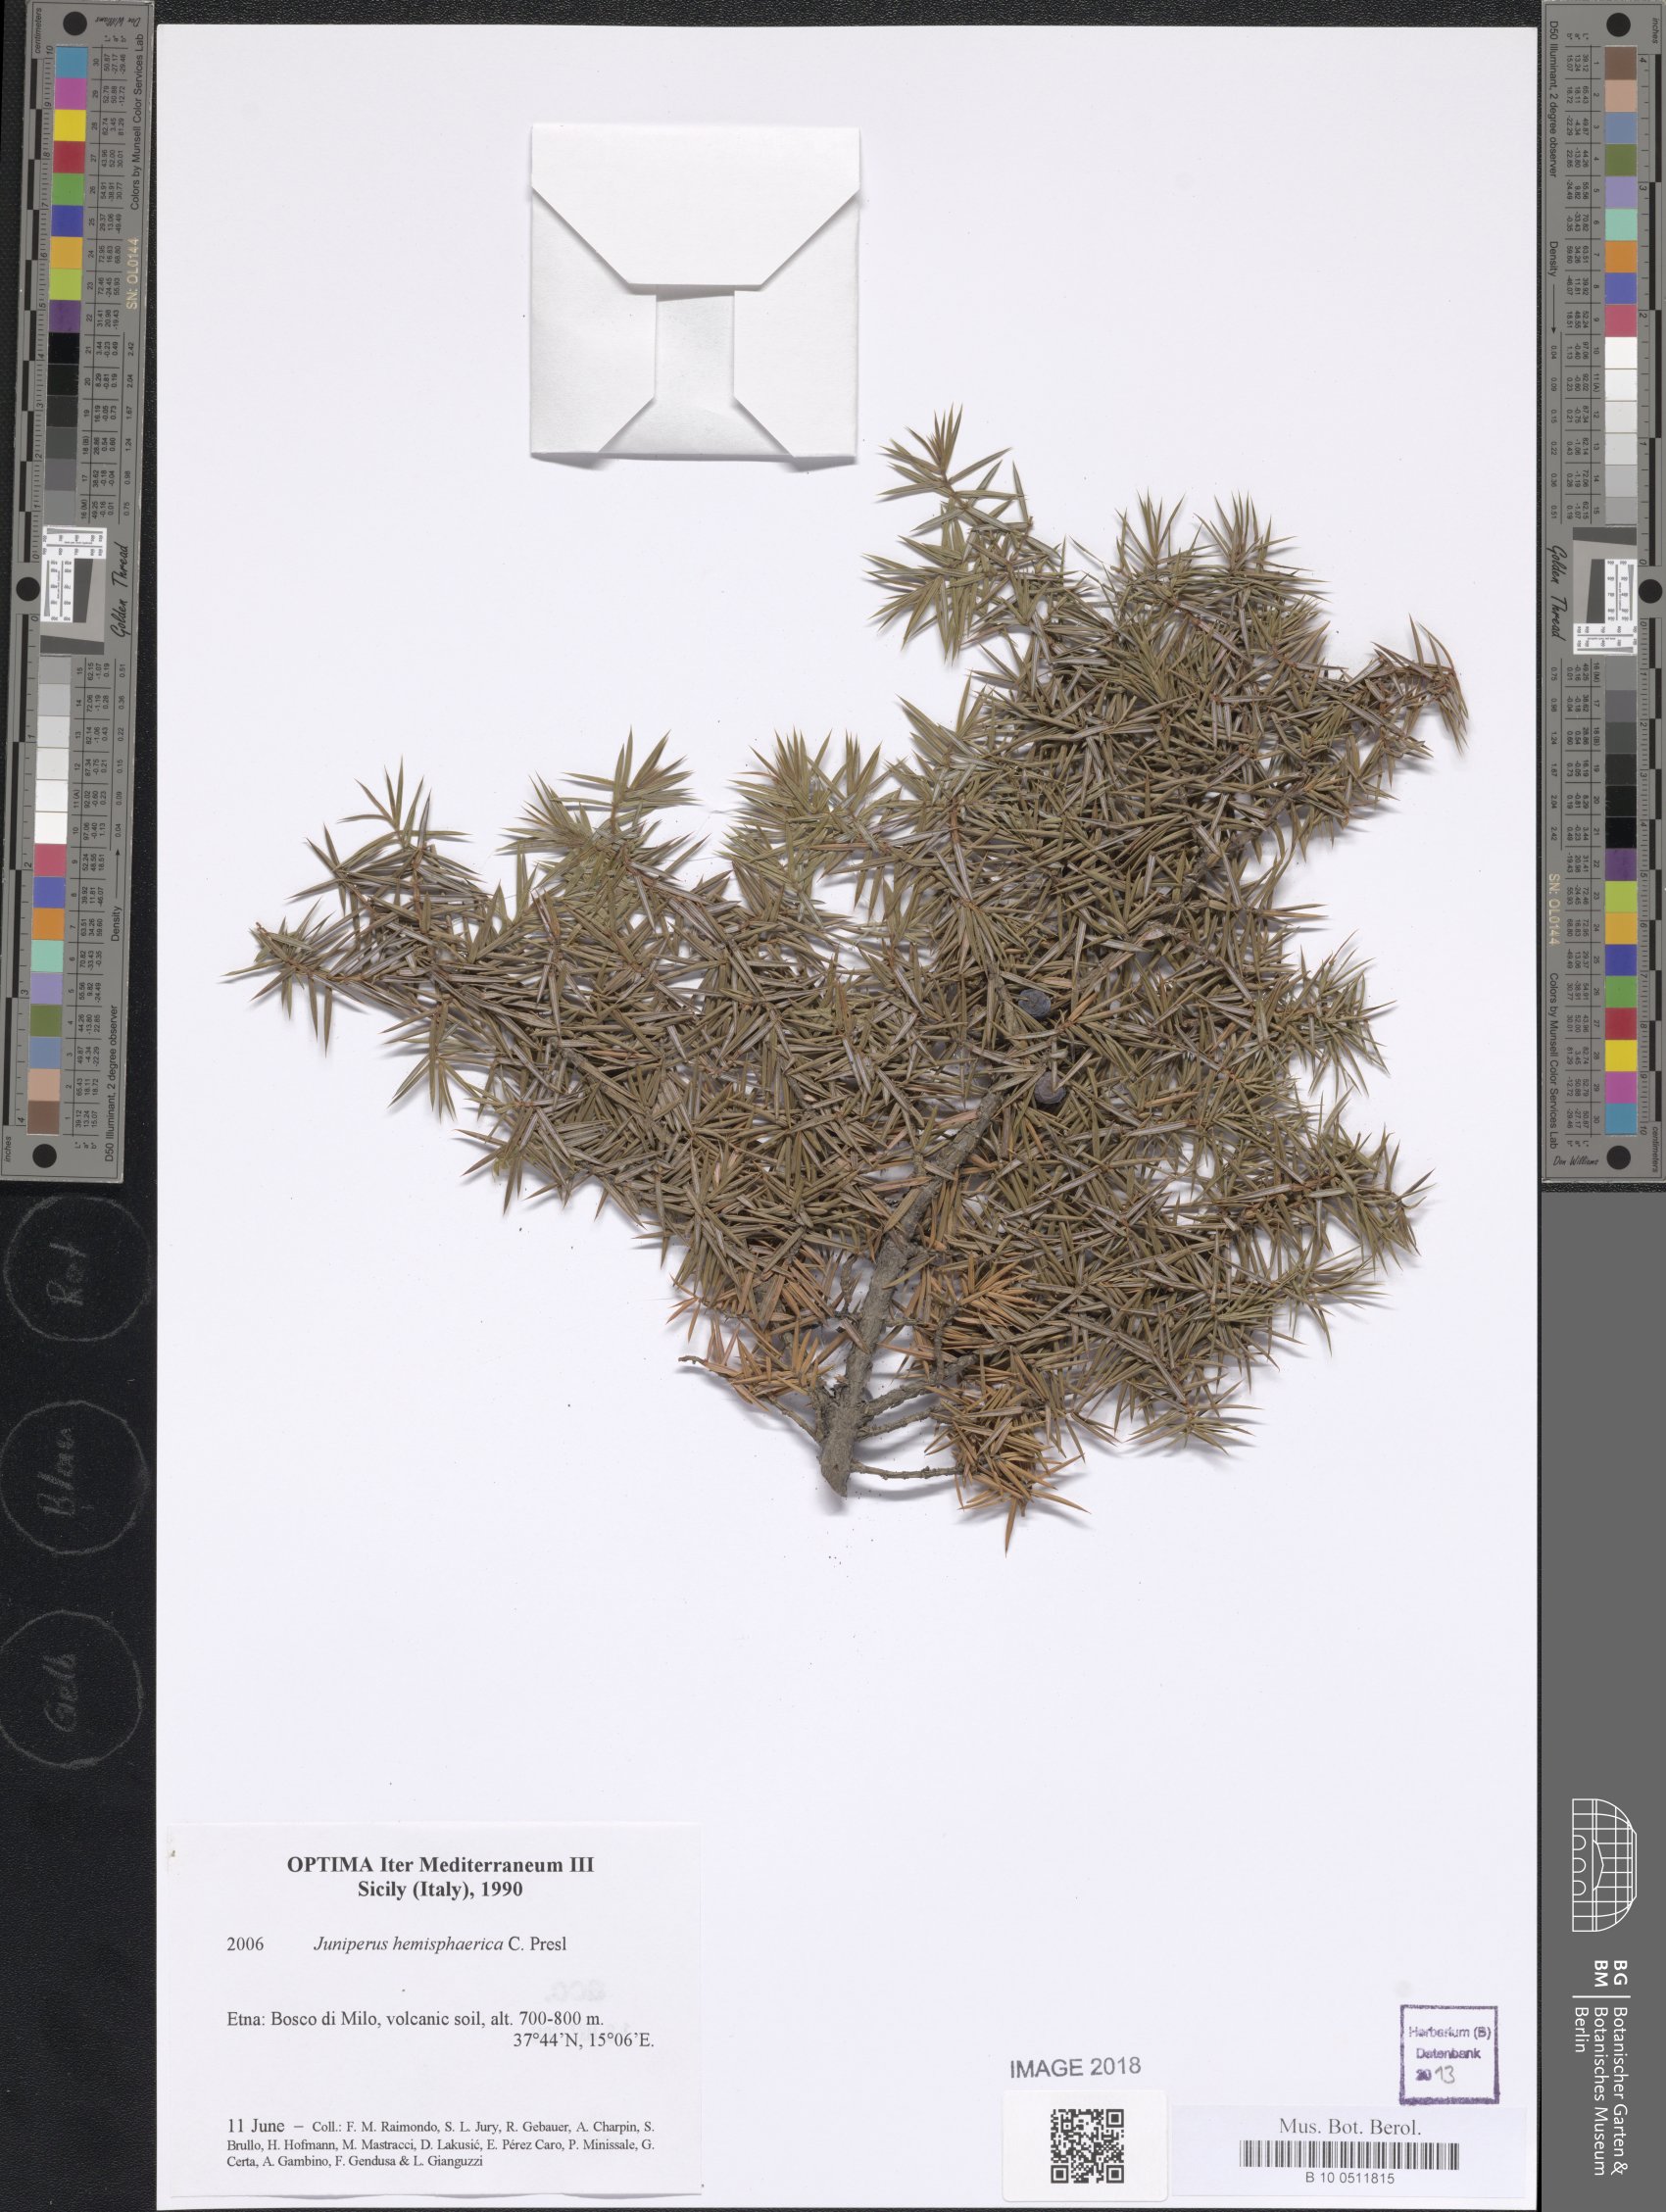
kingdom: Plantae
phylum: Tracheophyta
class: Pinopsida
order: Pinales
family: Cupressaceae
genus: Juniperus
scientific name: Juniperus communis
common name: Common juniper
